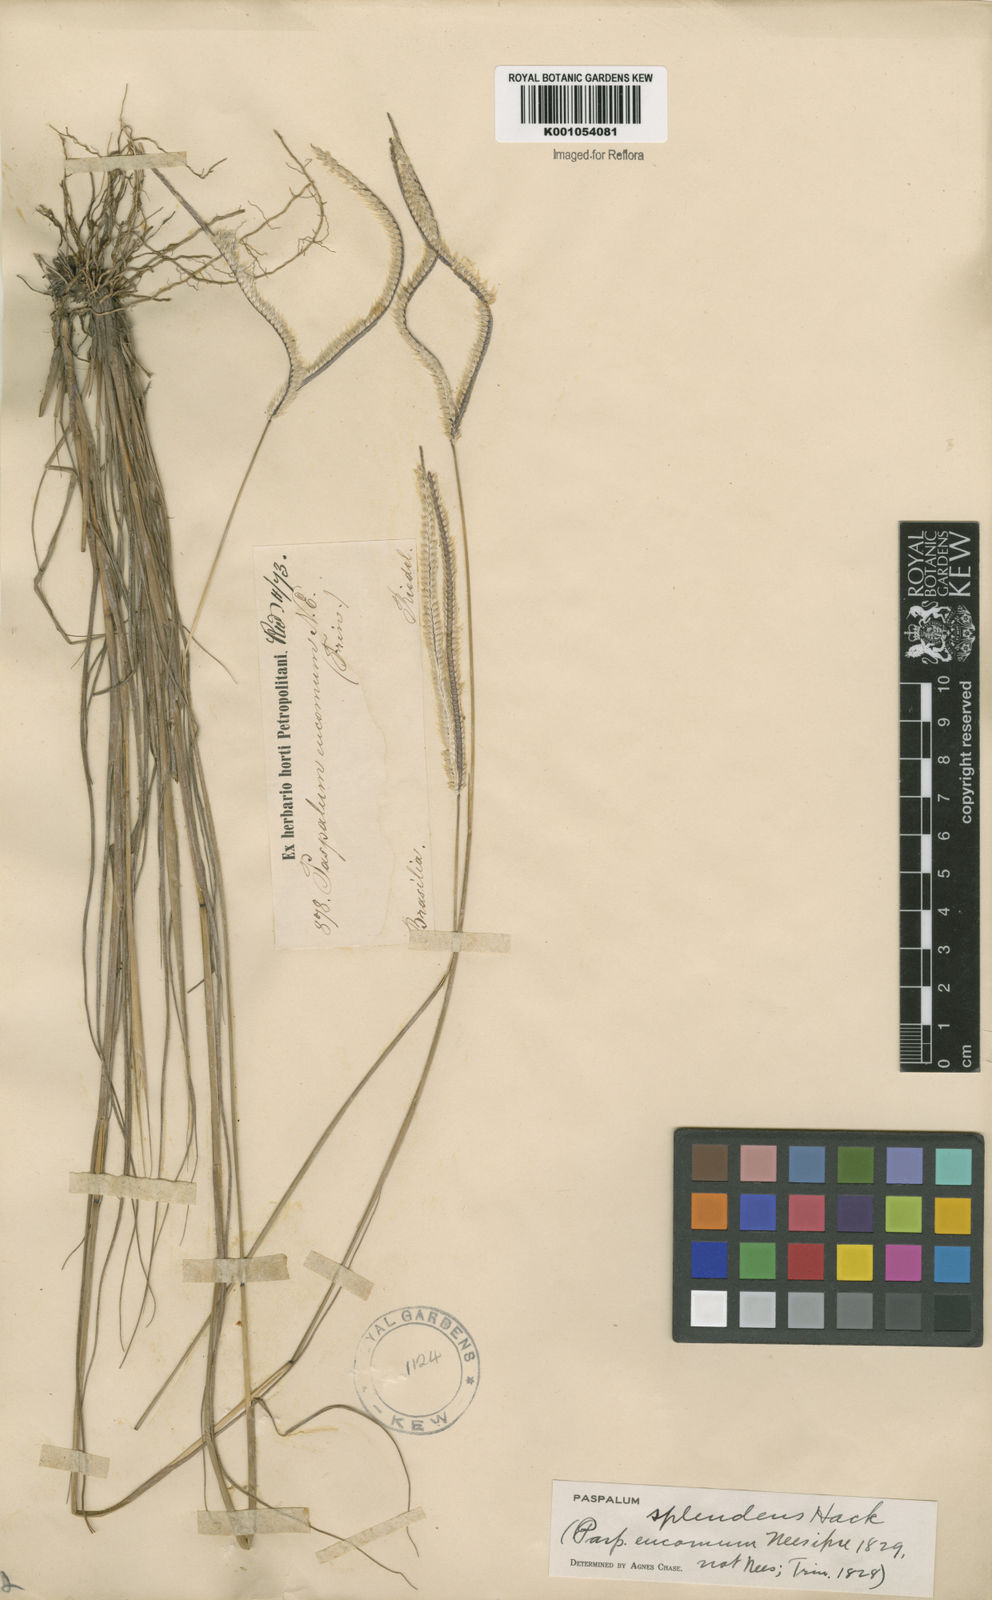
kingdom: Plantae
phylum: Tracheophyta
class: Liliopsida
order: Poales
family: Poaceae
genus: Paspalum
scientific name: Paspalum eucomum
